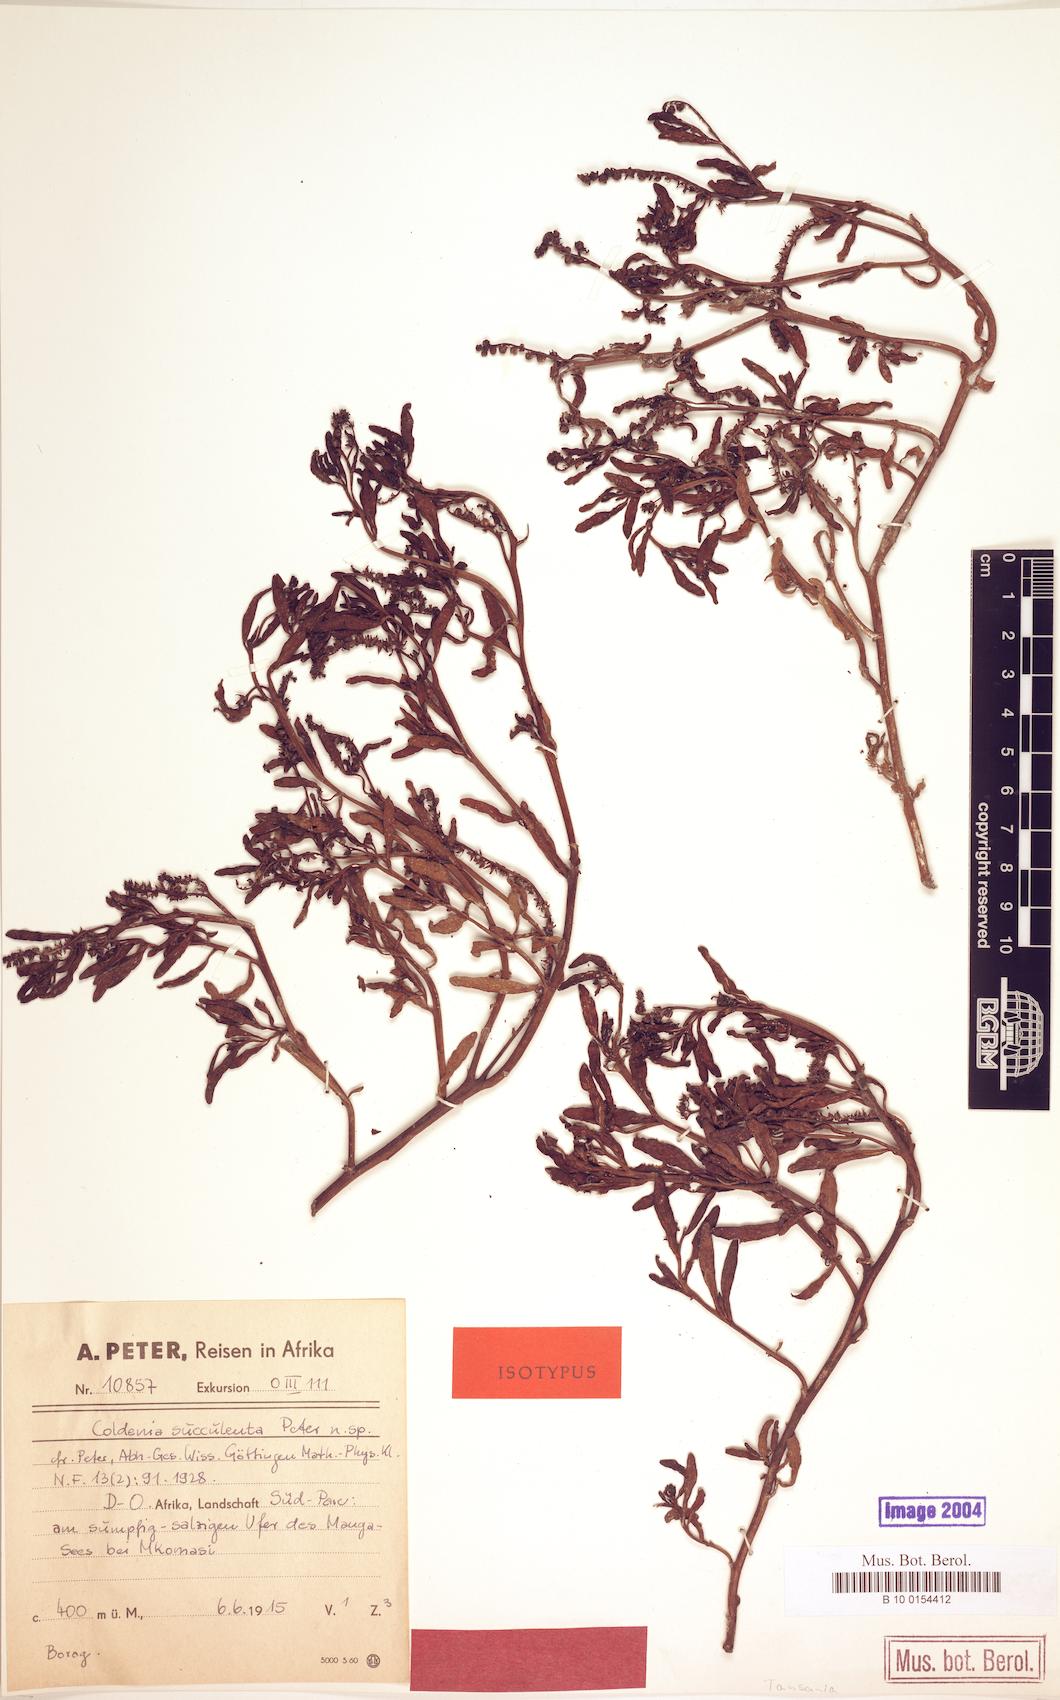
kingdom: Plantae
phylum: Tracheophyta
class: Magnoliopsida
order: Boraginales
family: Heliotropiaceae
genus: Heliotropium
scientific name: Heliotropium curassavicum
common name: Seaside heliotrope
